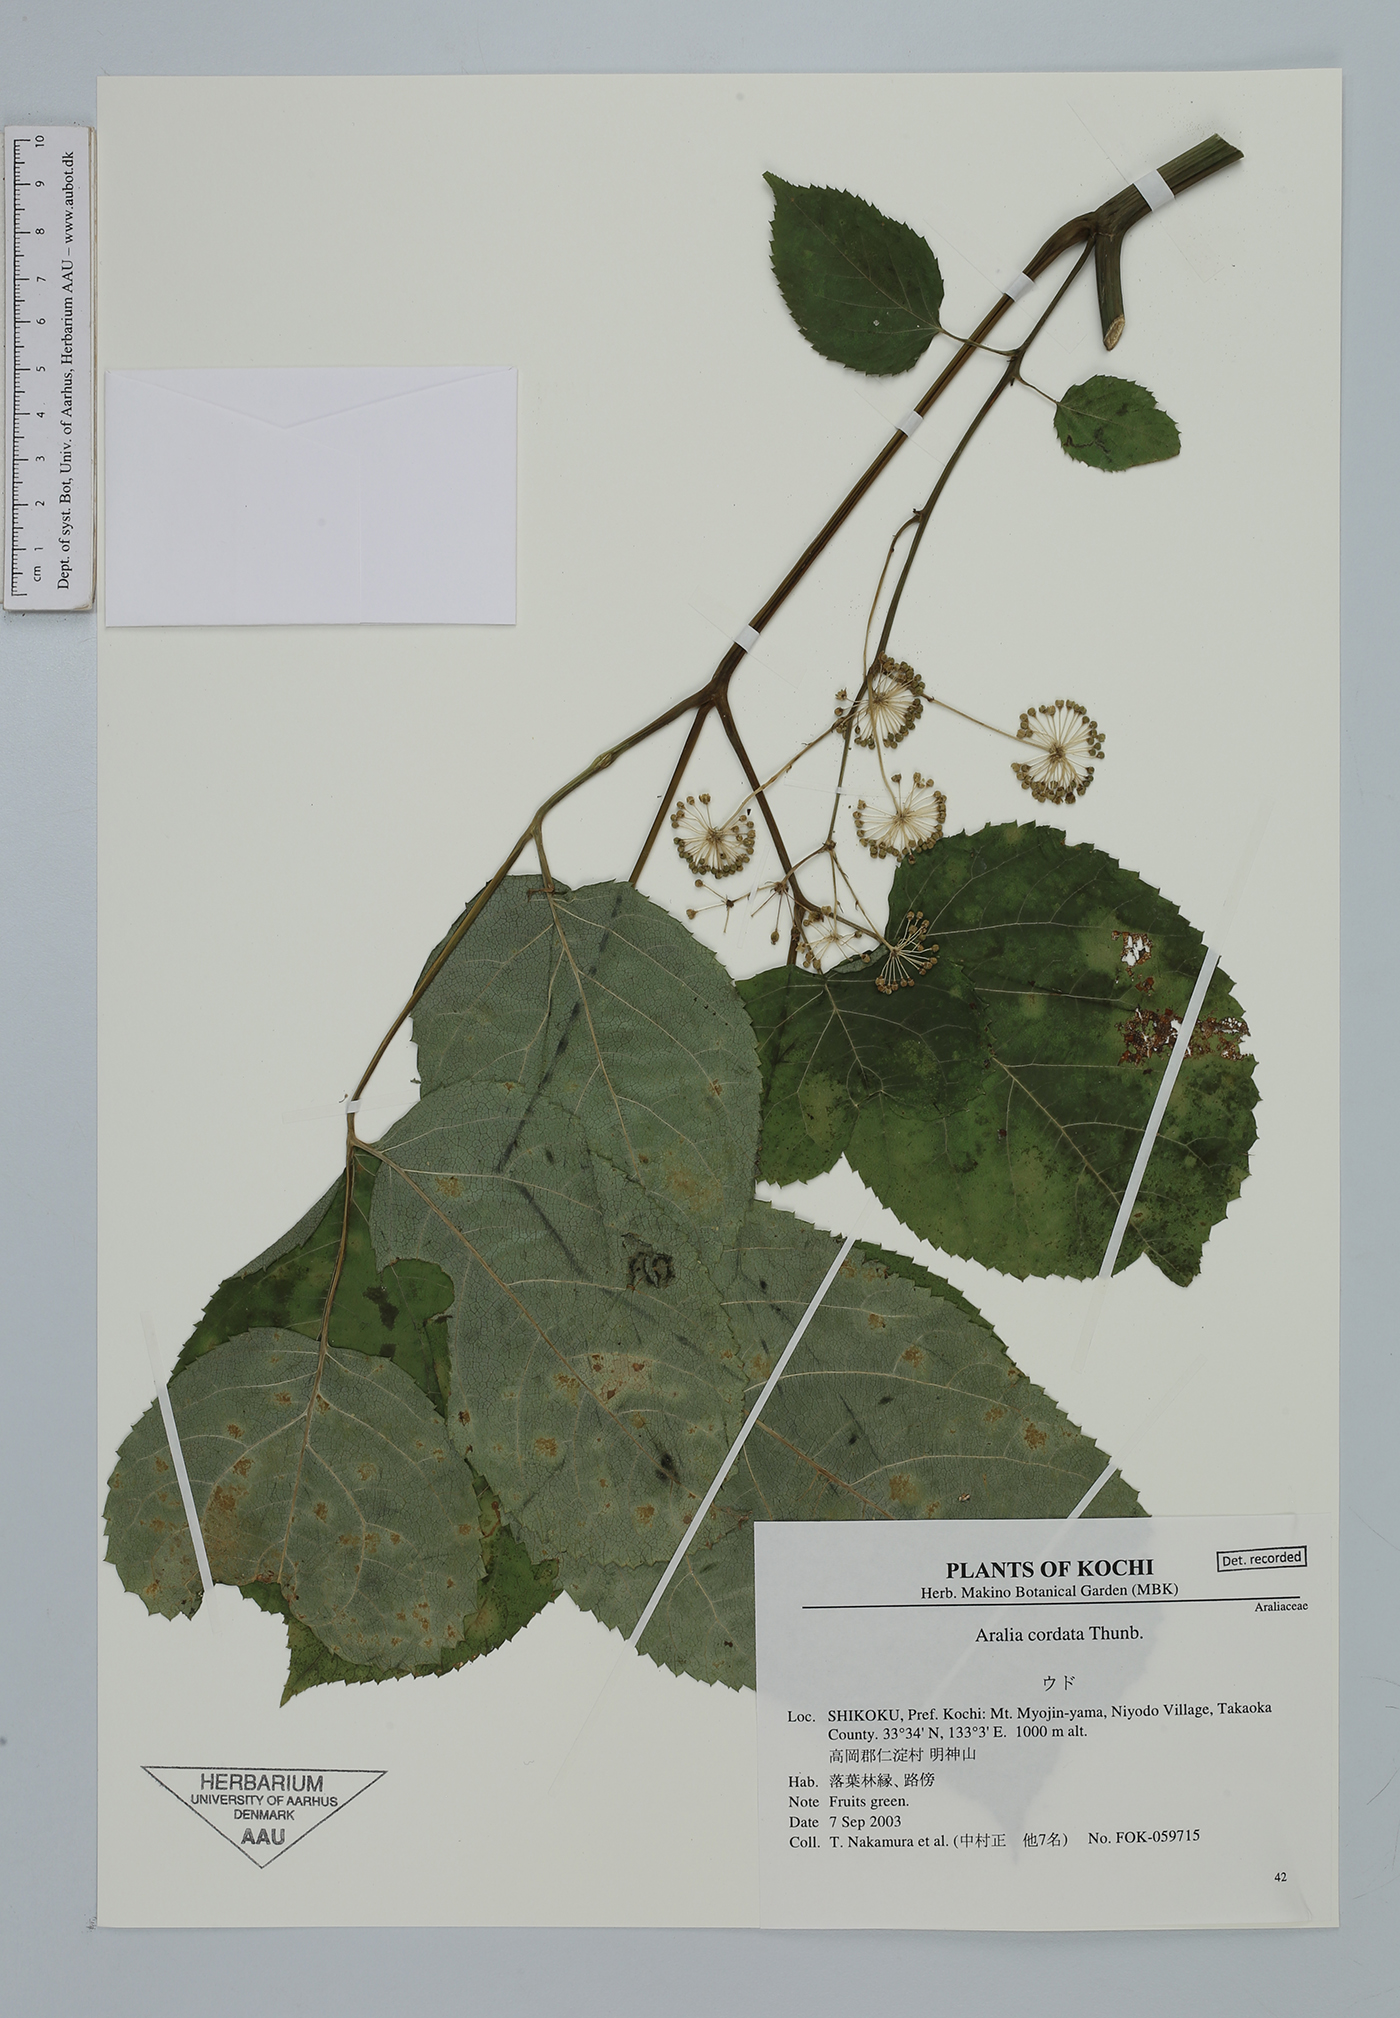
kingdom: Plantae
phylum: Tracheophyta
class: Magnoliopsida
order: Apiales
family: Araliaceae
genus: Aralia
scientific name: Aralia cordata
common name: Udo
